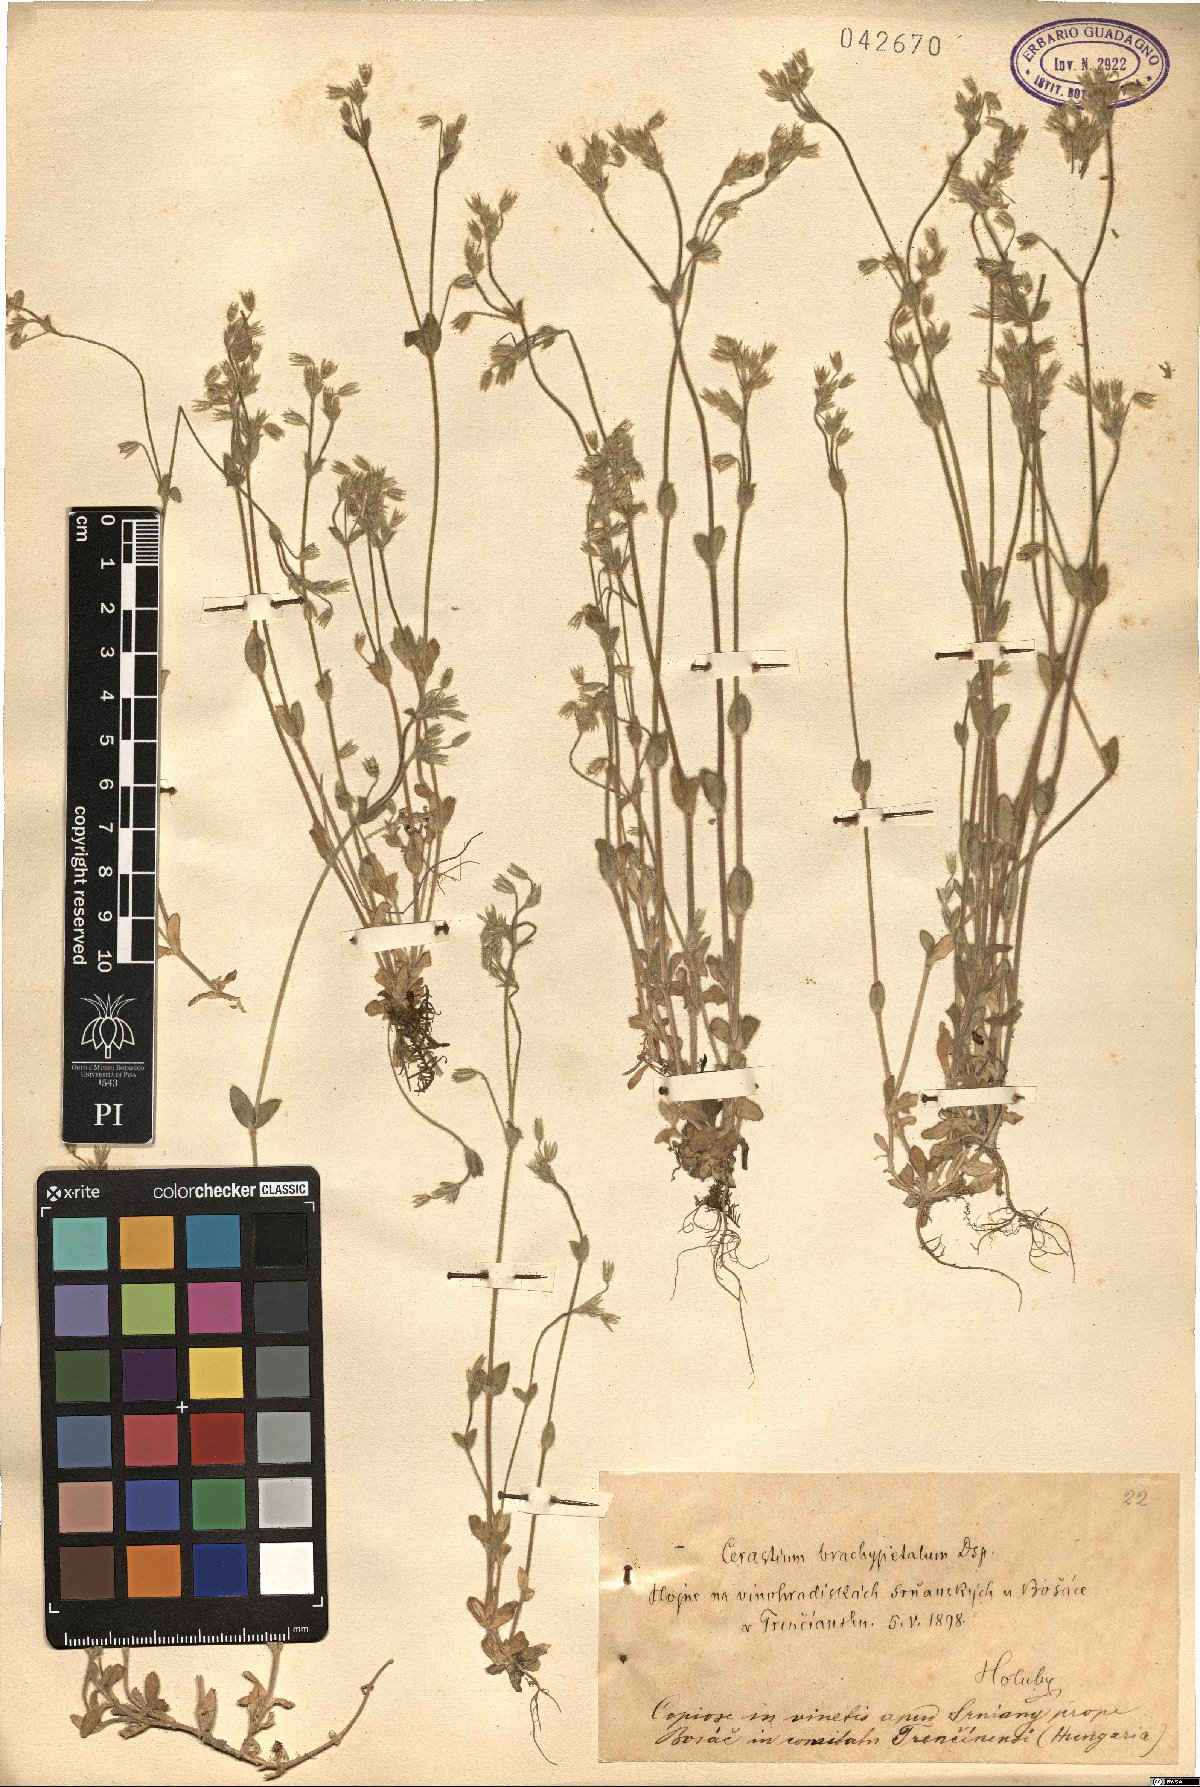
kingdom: Plantae
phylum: Tracheophyta
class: Magnoliopsida
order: Caryophyllales
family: Caryophyllaceae
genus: Cerastium
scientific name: Cerastium brachypetalum
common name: Grey mouse-ear
